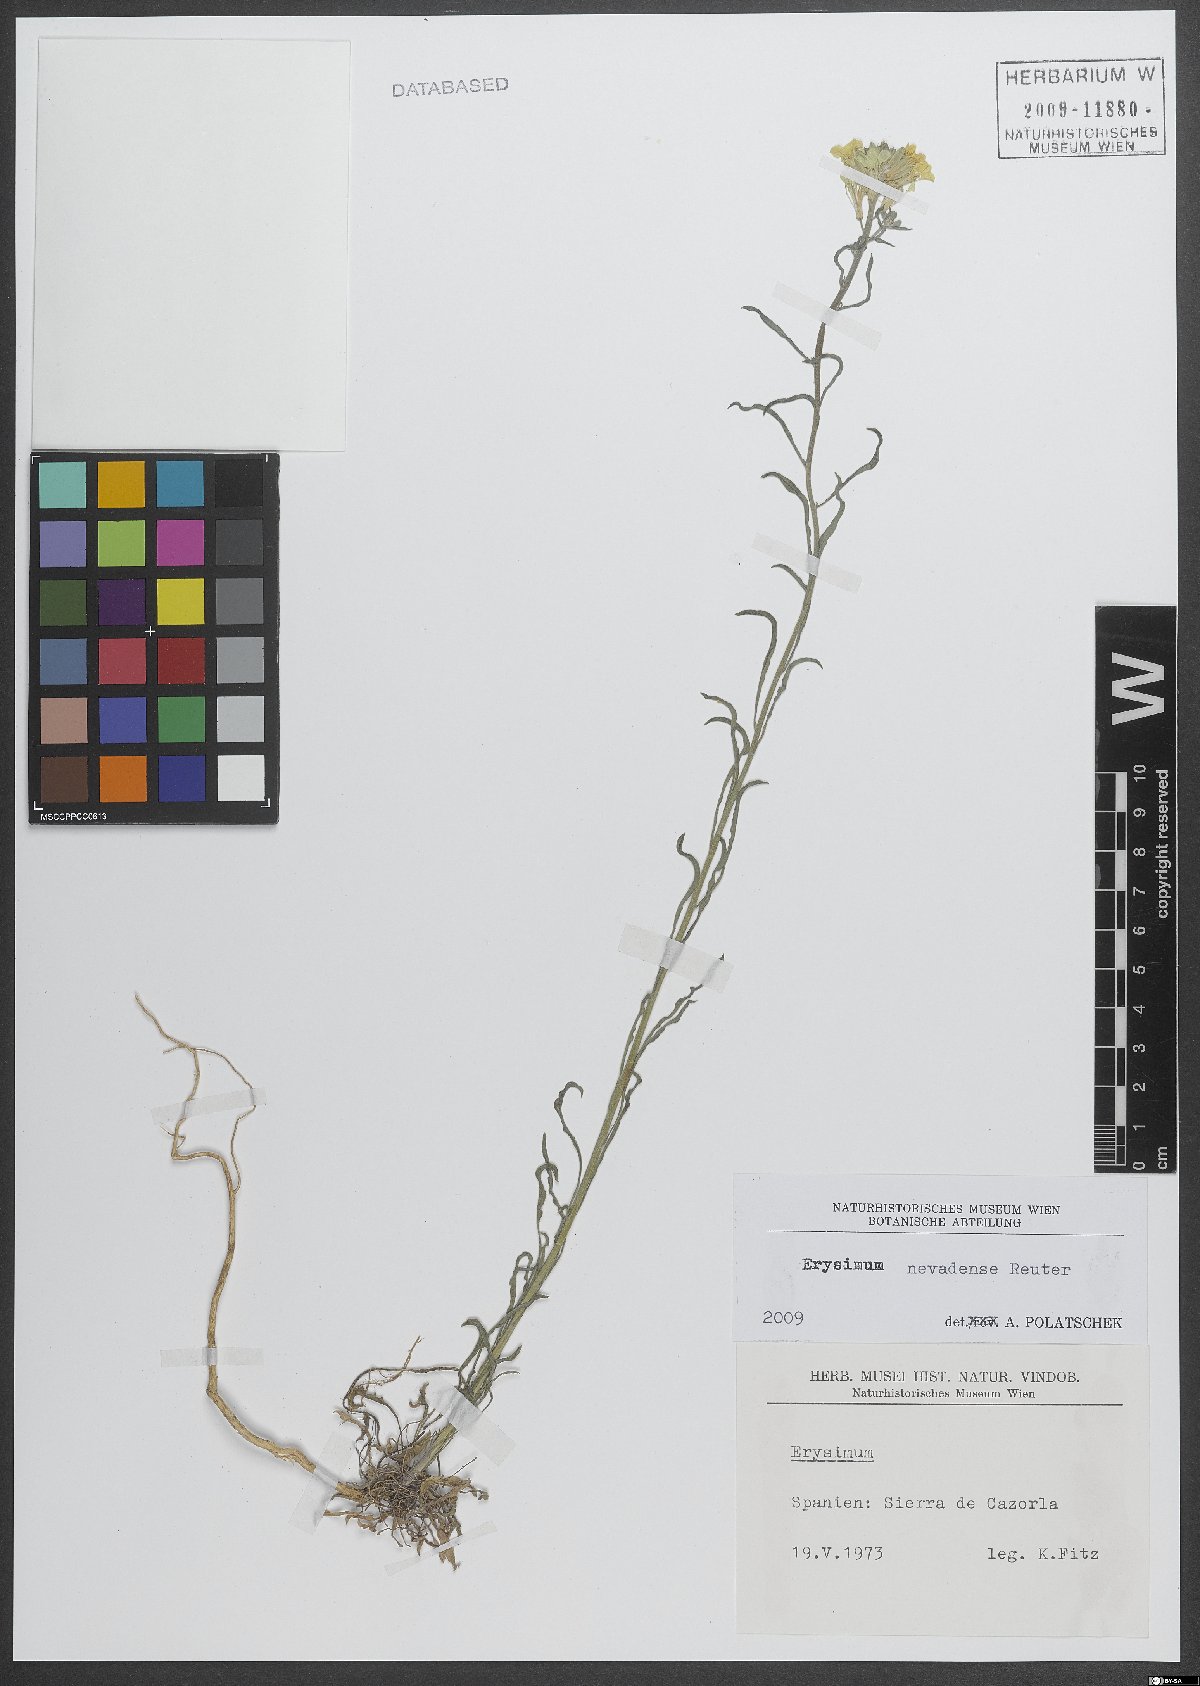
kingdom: Plantae
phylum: Tracheophyta
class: Magnoliopsida
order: Brassicales
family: Brassicaceae
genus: Erysimum
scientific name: Erysimum nevadense
